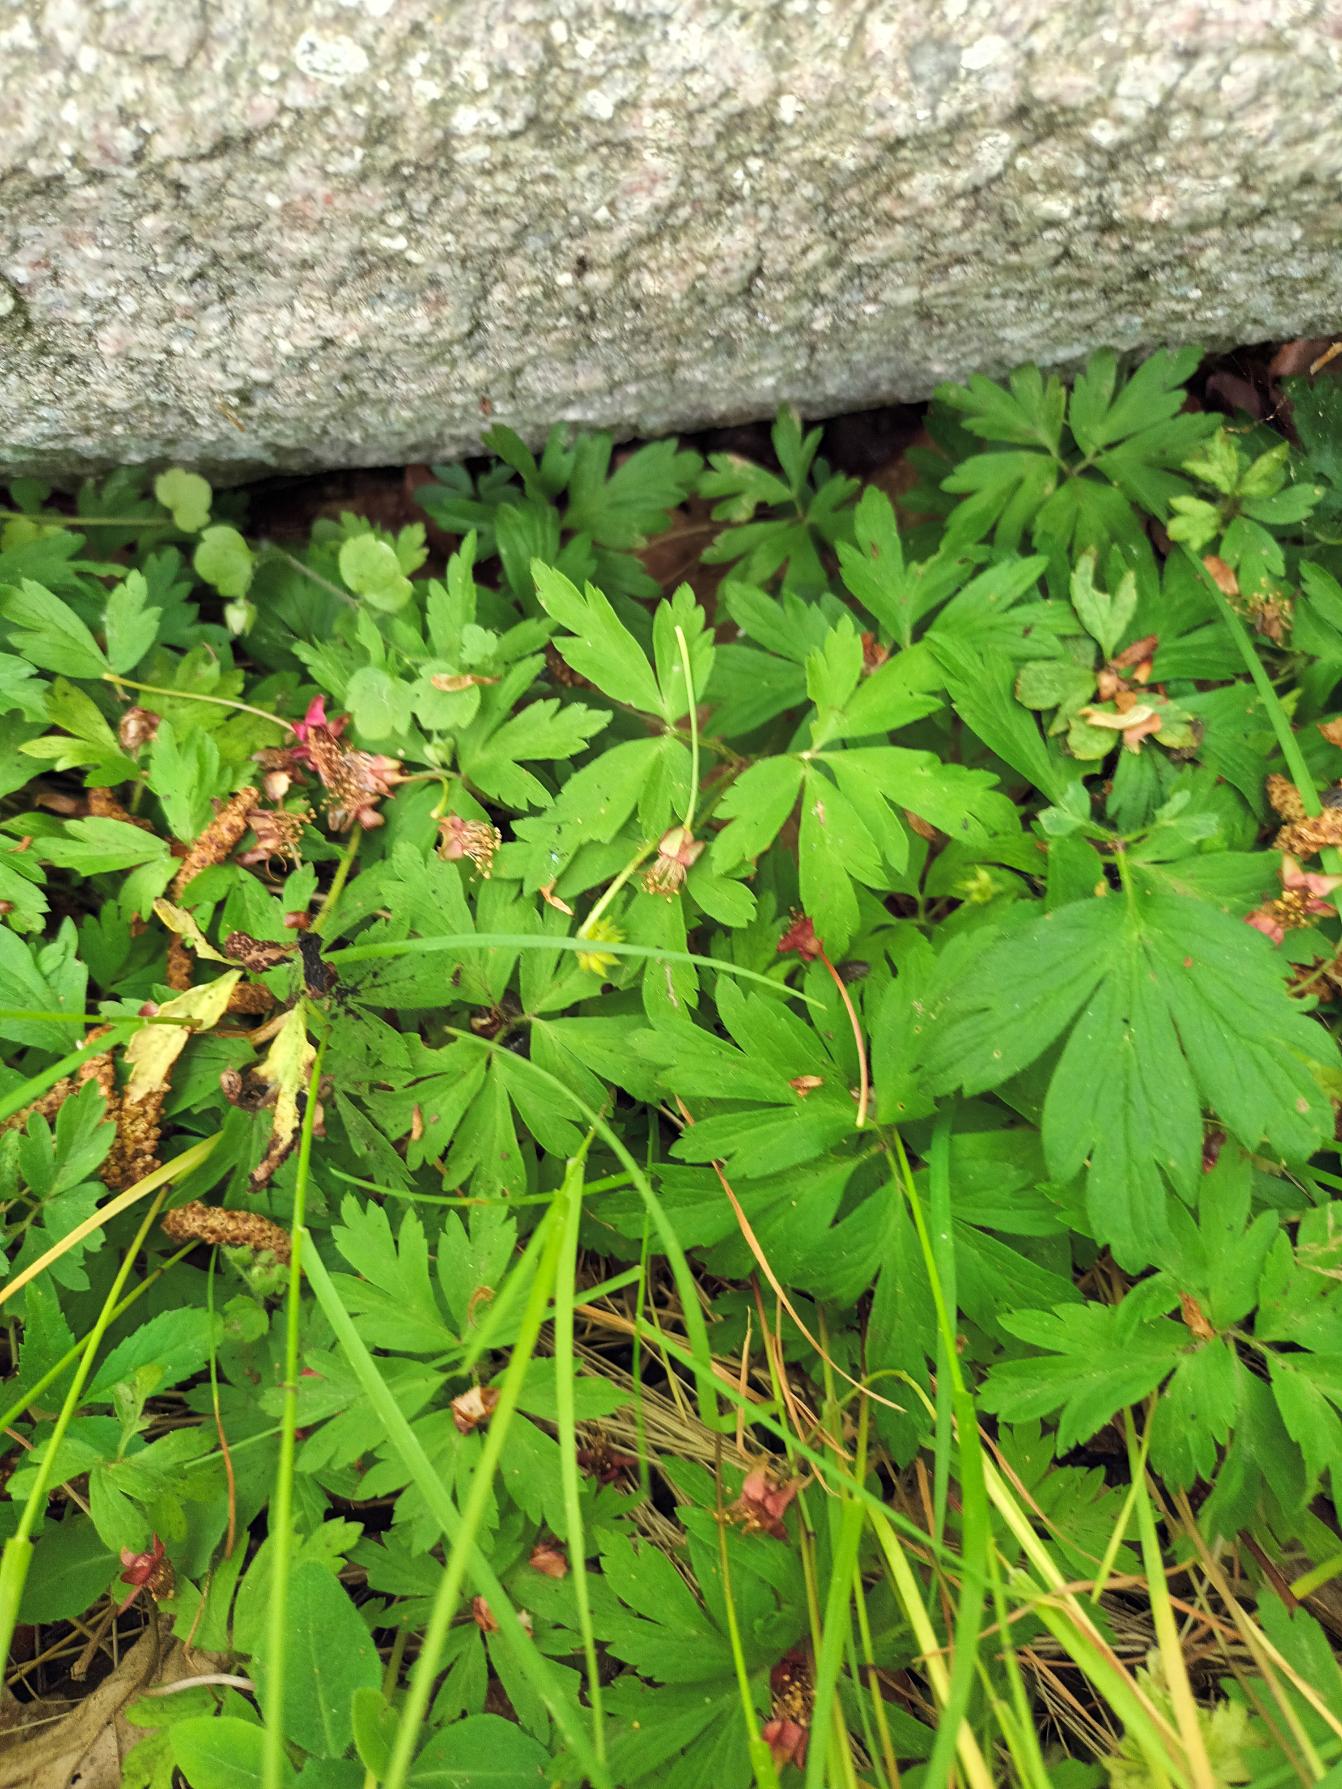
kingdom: Plantae
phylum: Tracheophyta
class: Magnoliopsida
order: Ranunculales
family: Ranunculaceae
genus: Anemone
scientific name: Anemone nemorosa
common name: Hvid anemone
